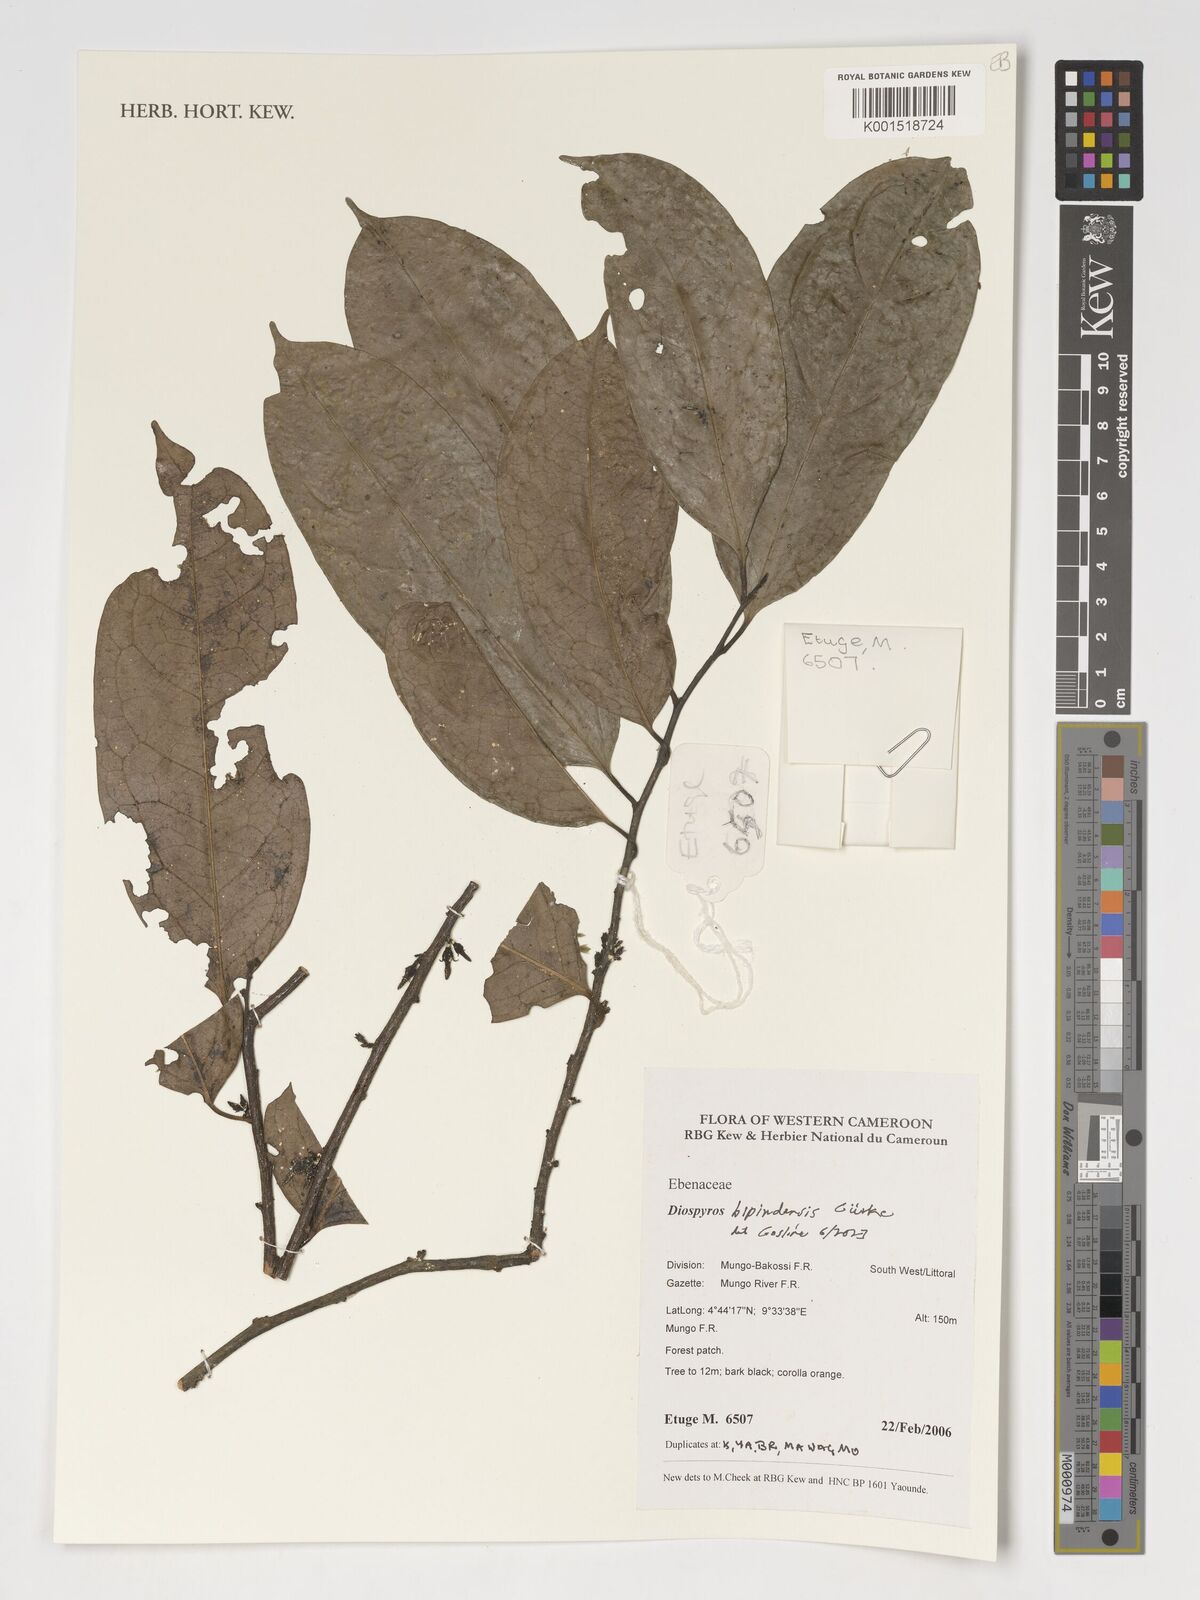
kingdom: Plantae
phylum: Tracheophyta
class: Magnoliopsida
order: Ericales
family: Ebenaceae
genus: Diospyros
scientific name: Diospyros bipindensis
